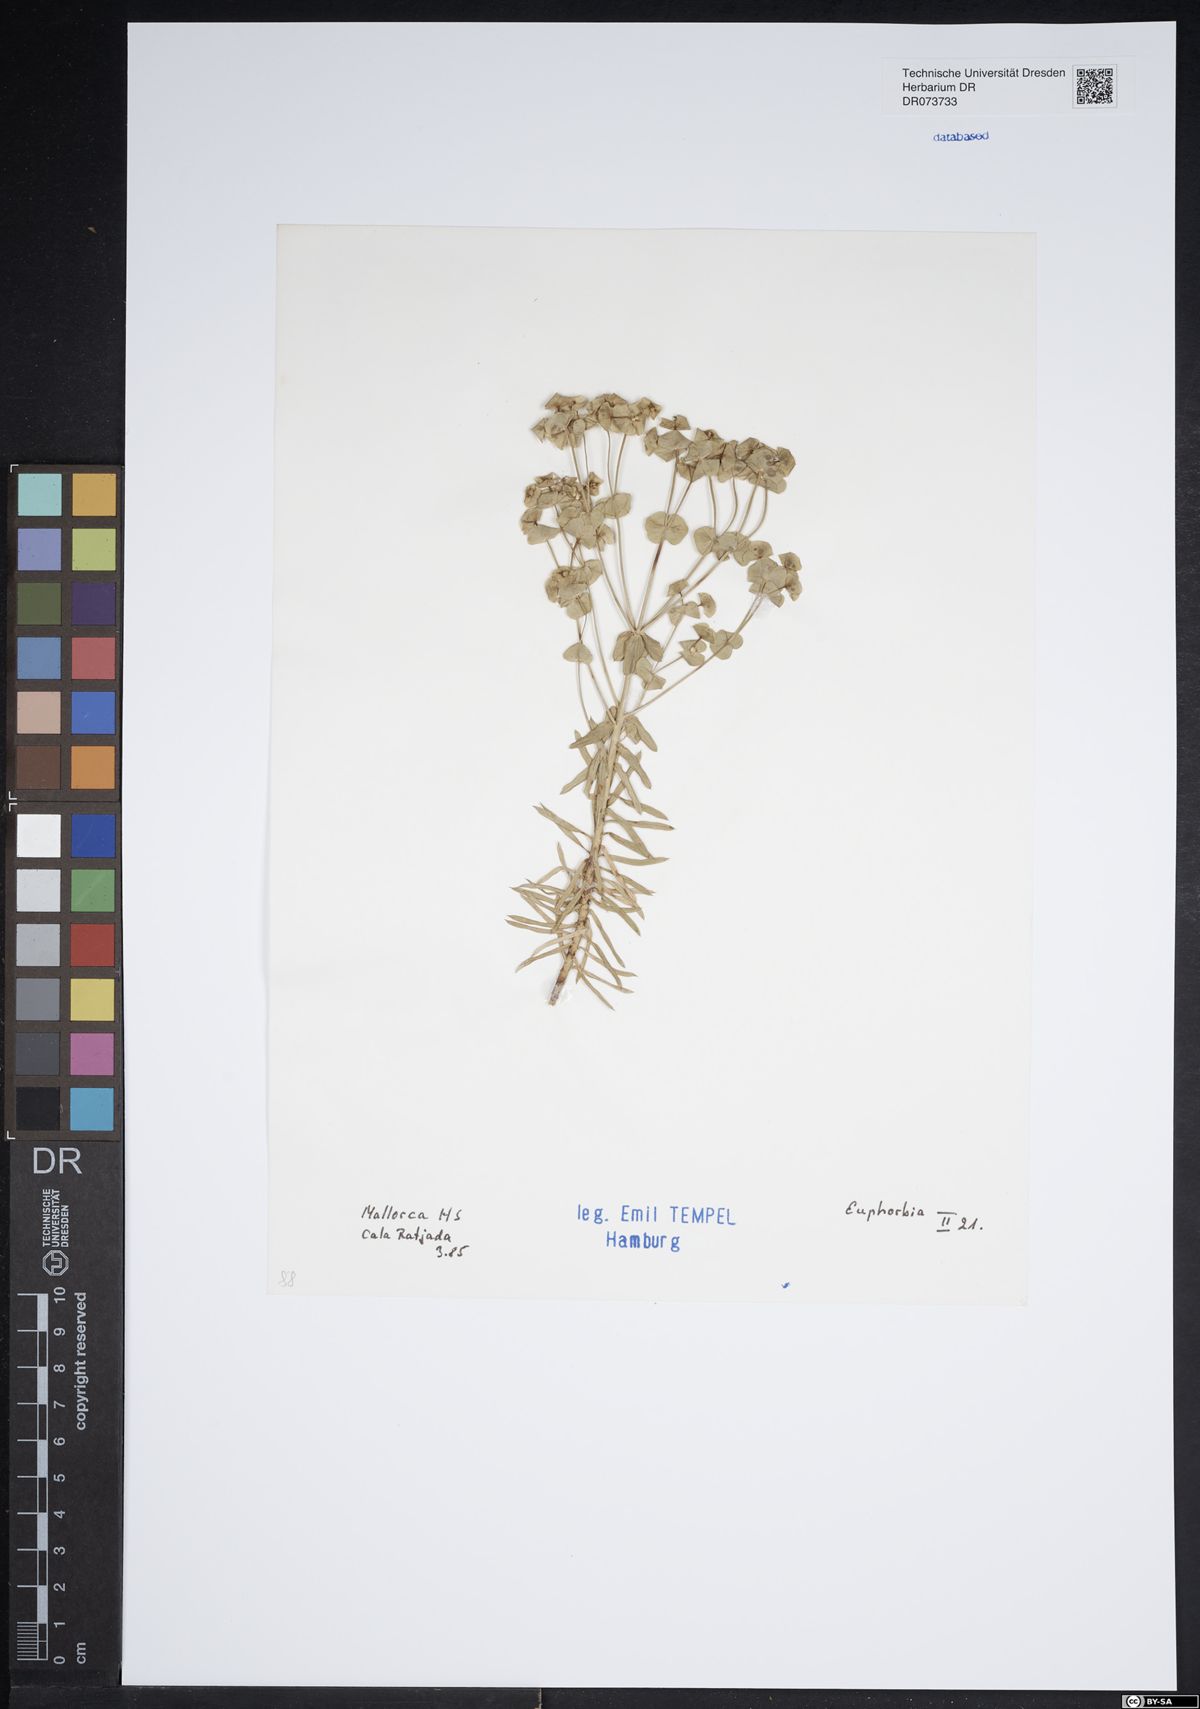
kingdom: Plantae
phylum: Tracheophyta
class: Magnoliopsida
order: Malpighiales
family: Euphorbiaceae
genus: Euphorbia
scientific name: Euphorbia
